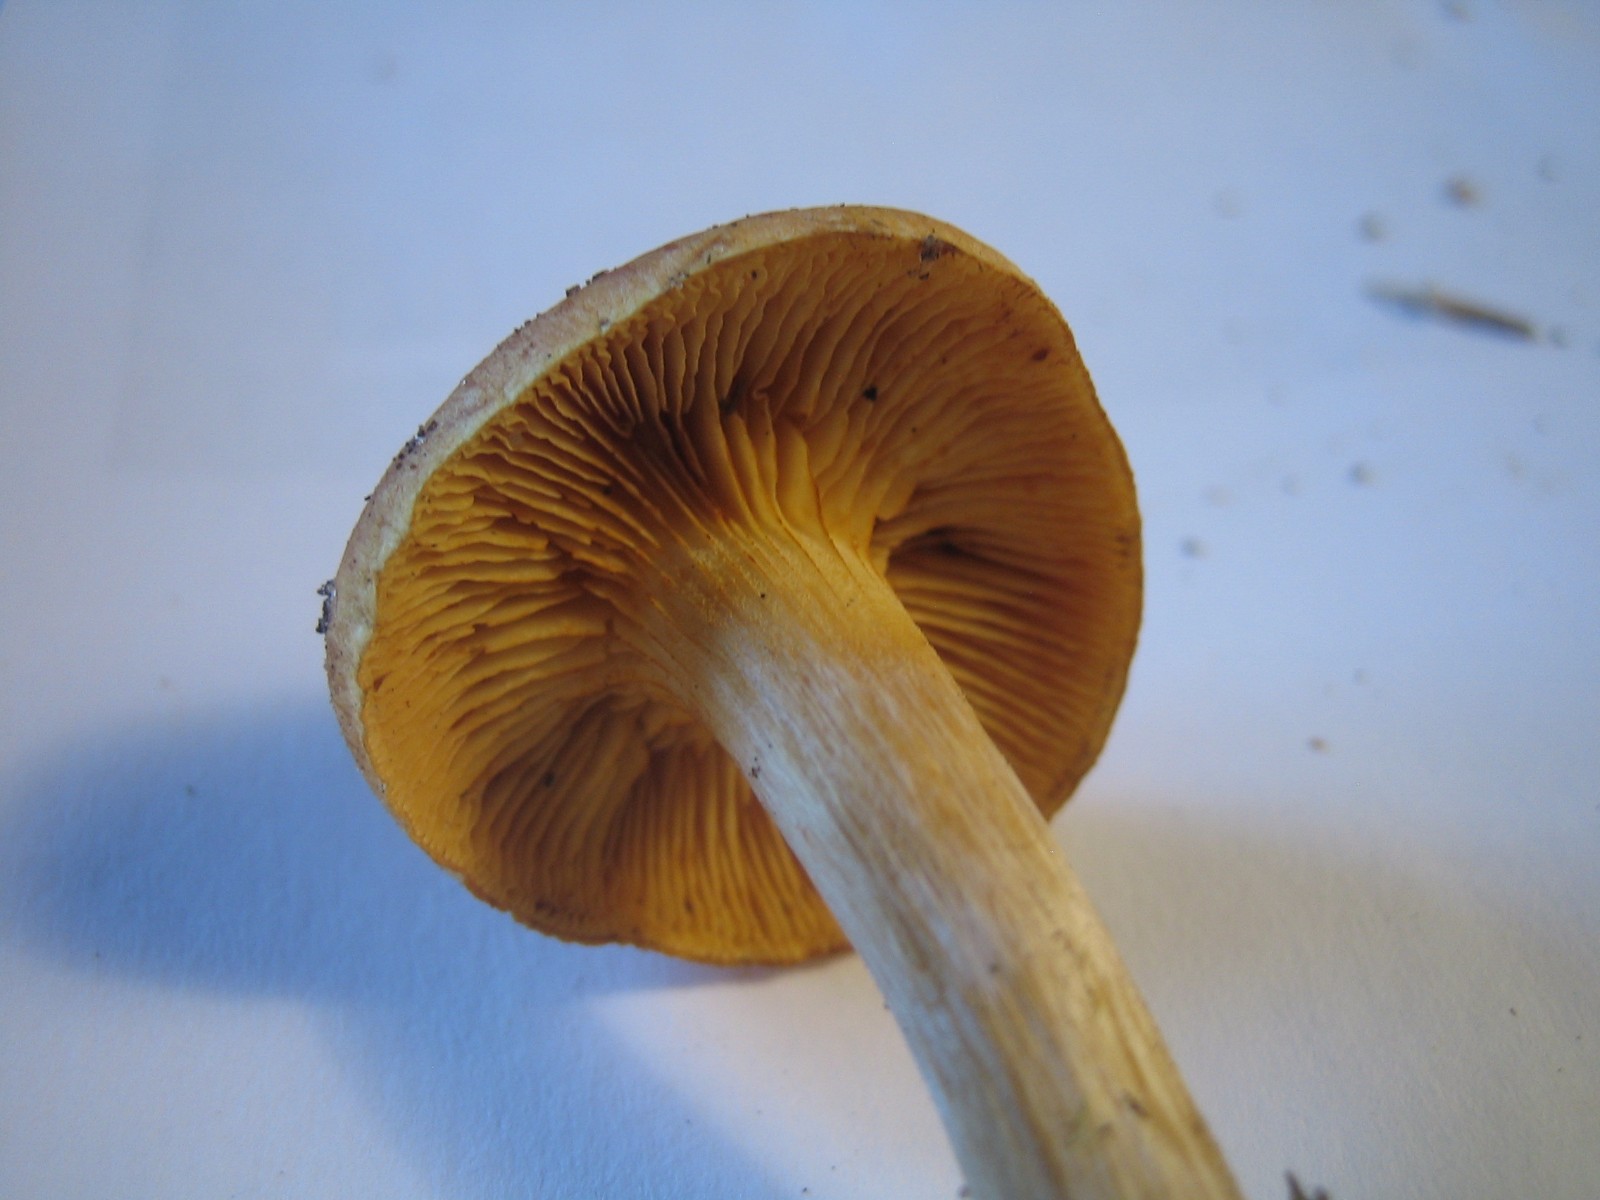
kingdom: Fungi
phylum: Basidiomycota
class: Agaricomycetes
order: Agaricales
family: Hymenogastraceae
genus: Gymnopilus
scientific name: Gymnopilus penetrans
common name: plettet flammehat
